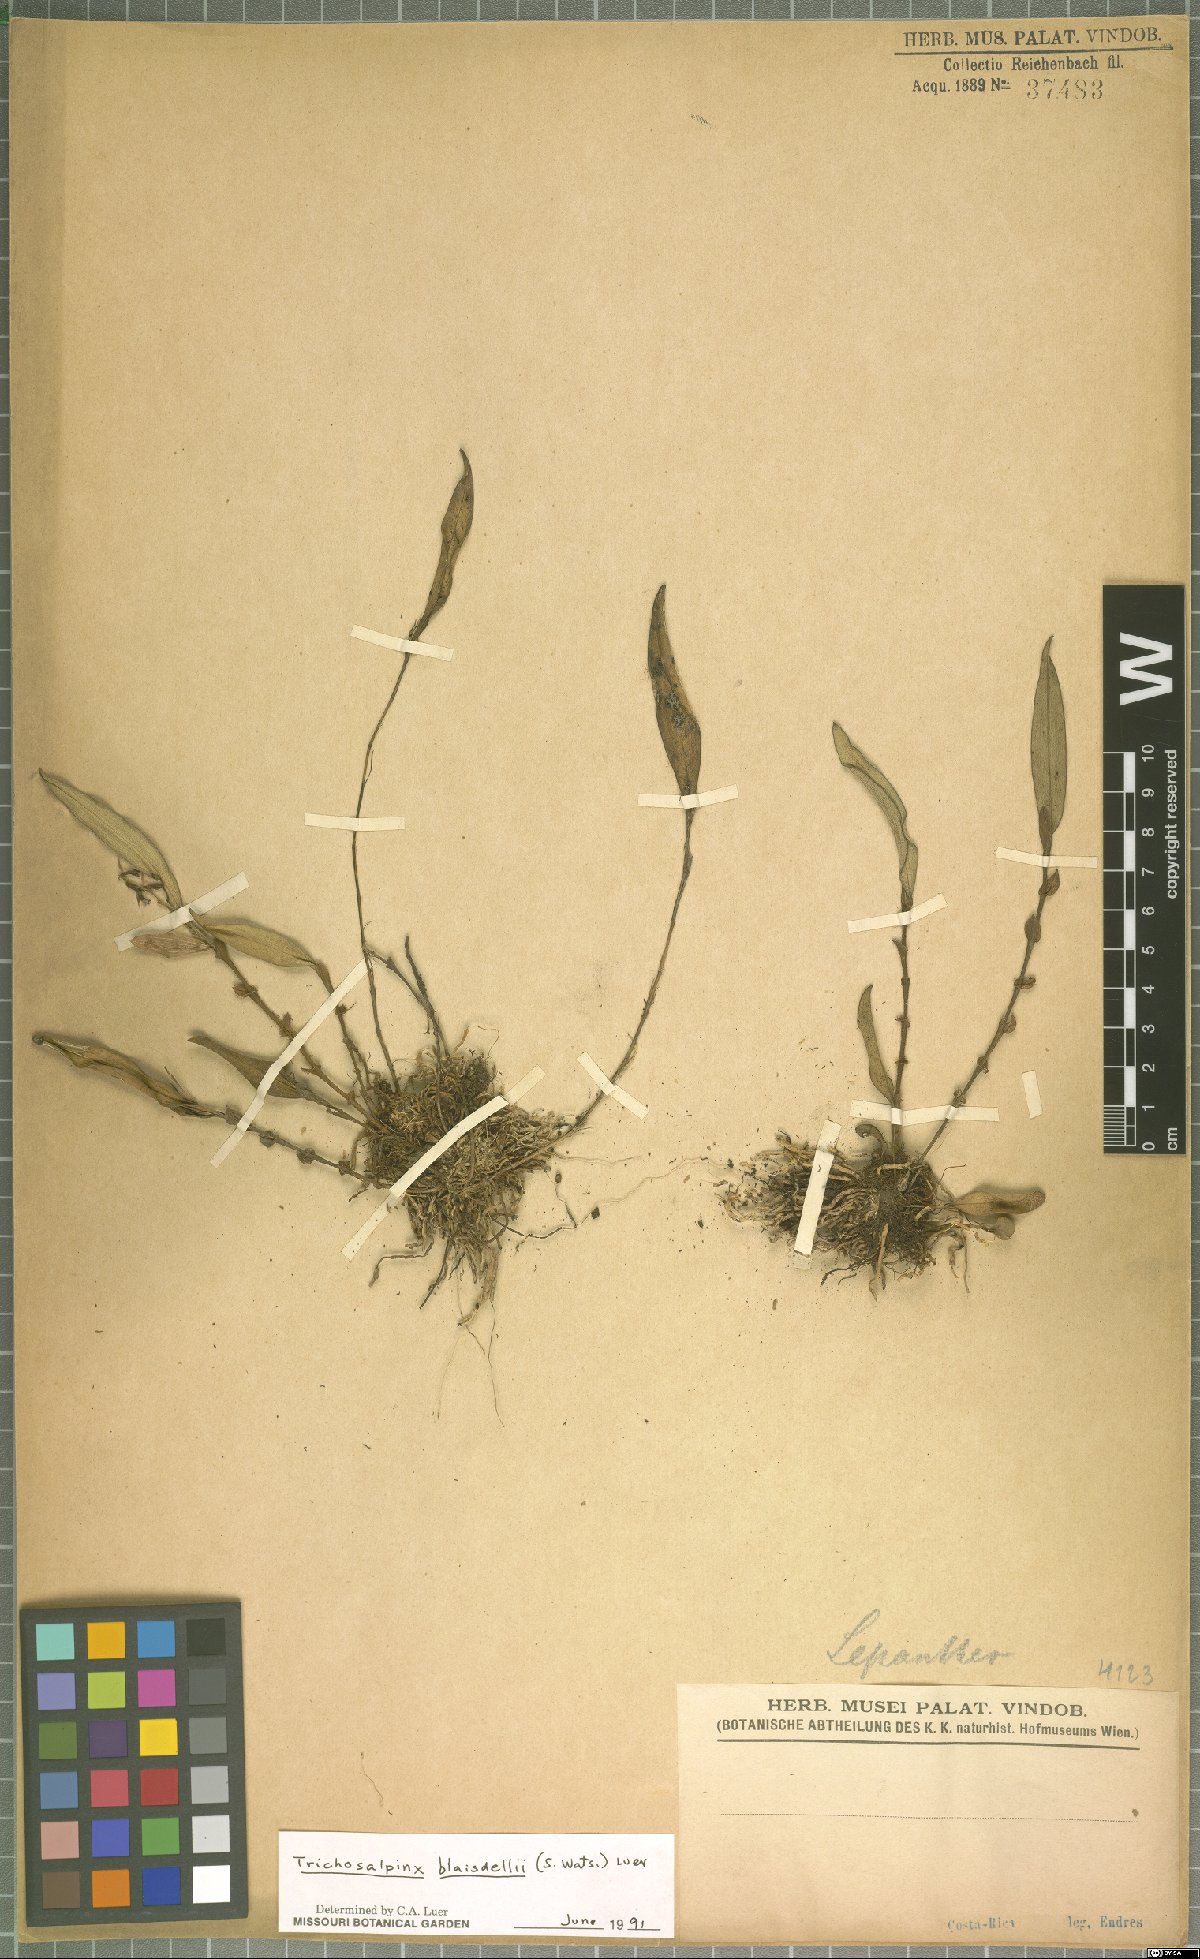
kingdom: Plantae
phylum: Tracheophyta
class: Liliopsida
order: Asparagales
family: Orchidaceae
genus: Trichosalpinx
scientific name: Trichosalpinx blaisdellii
